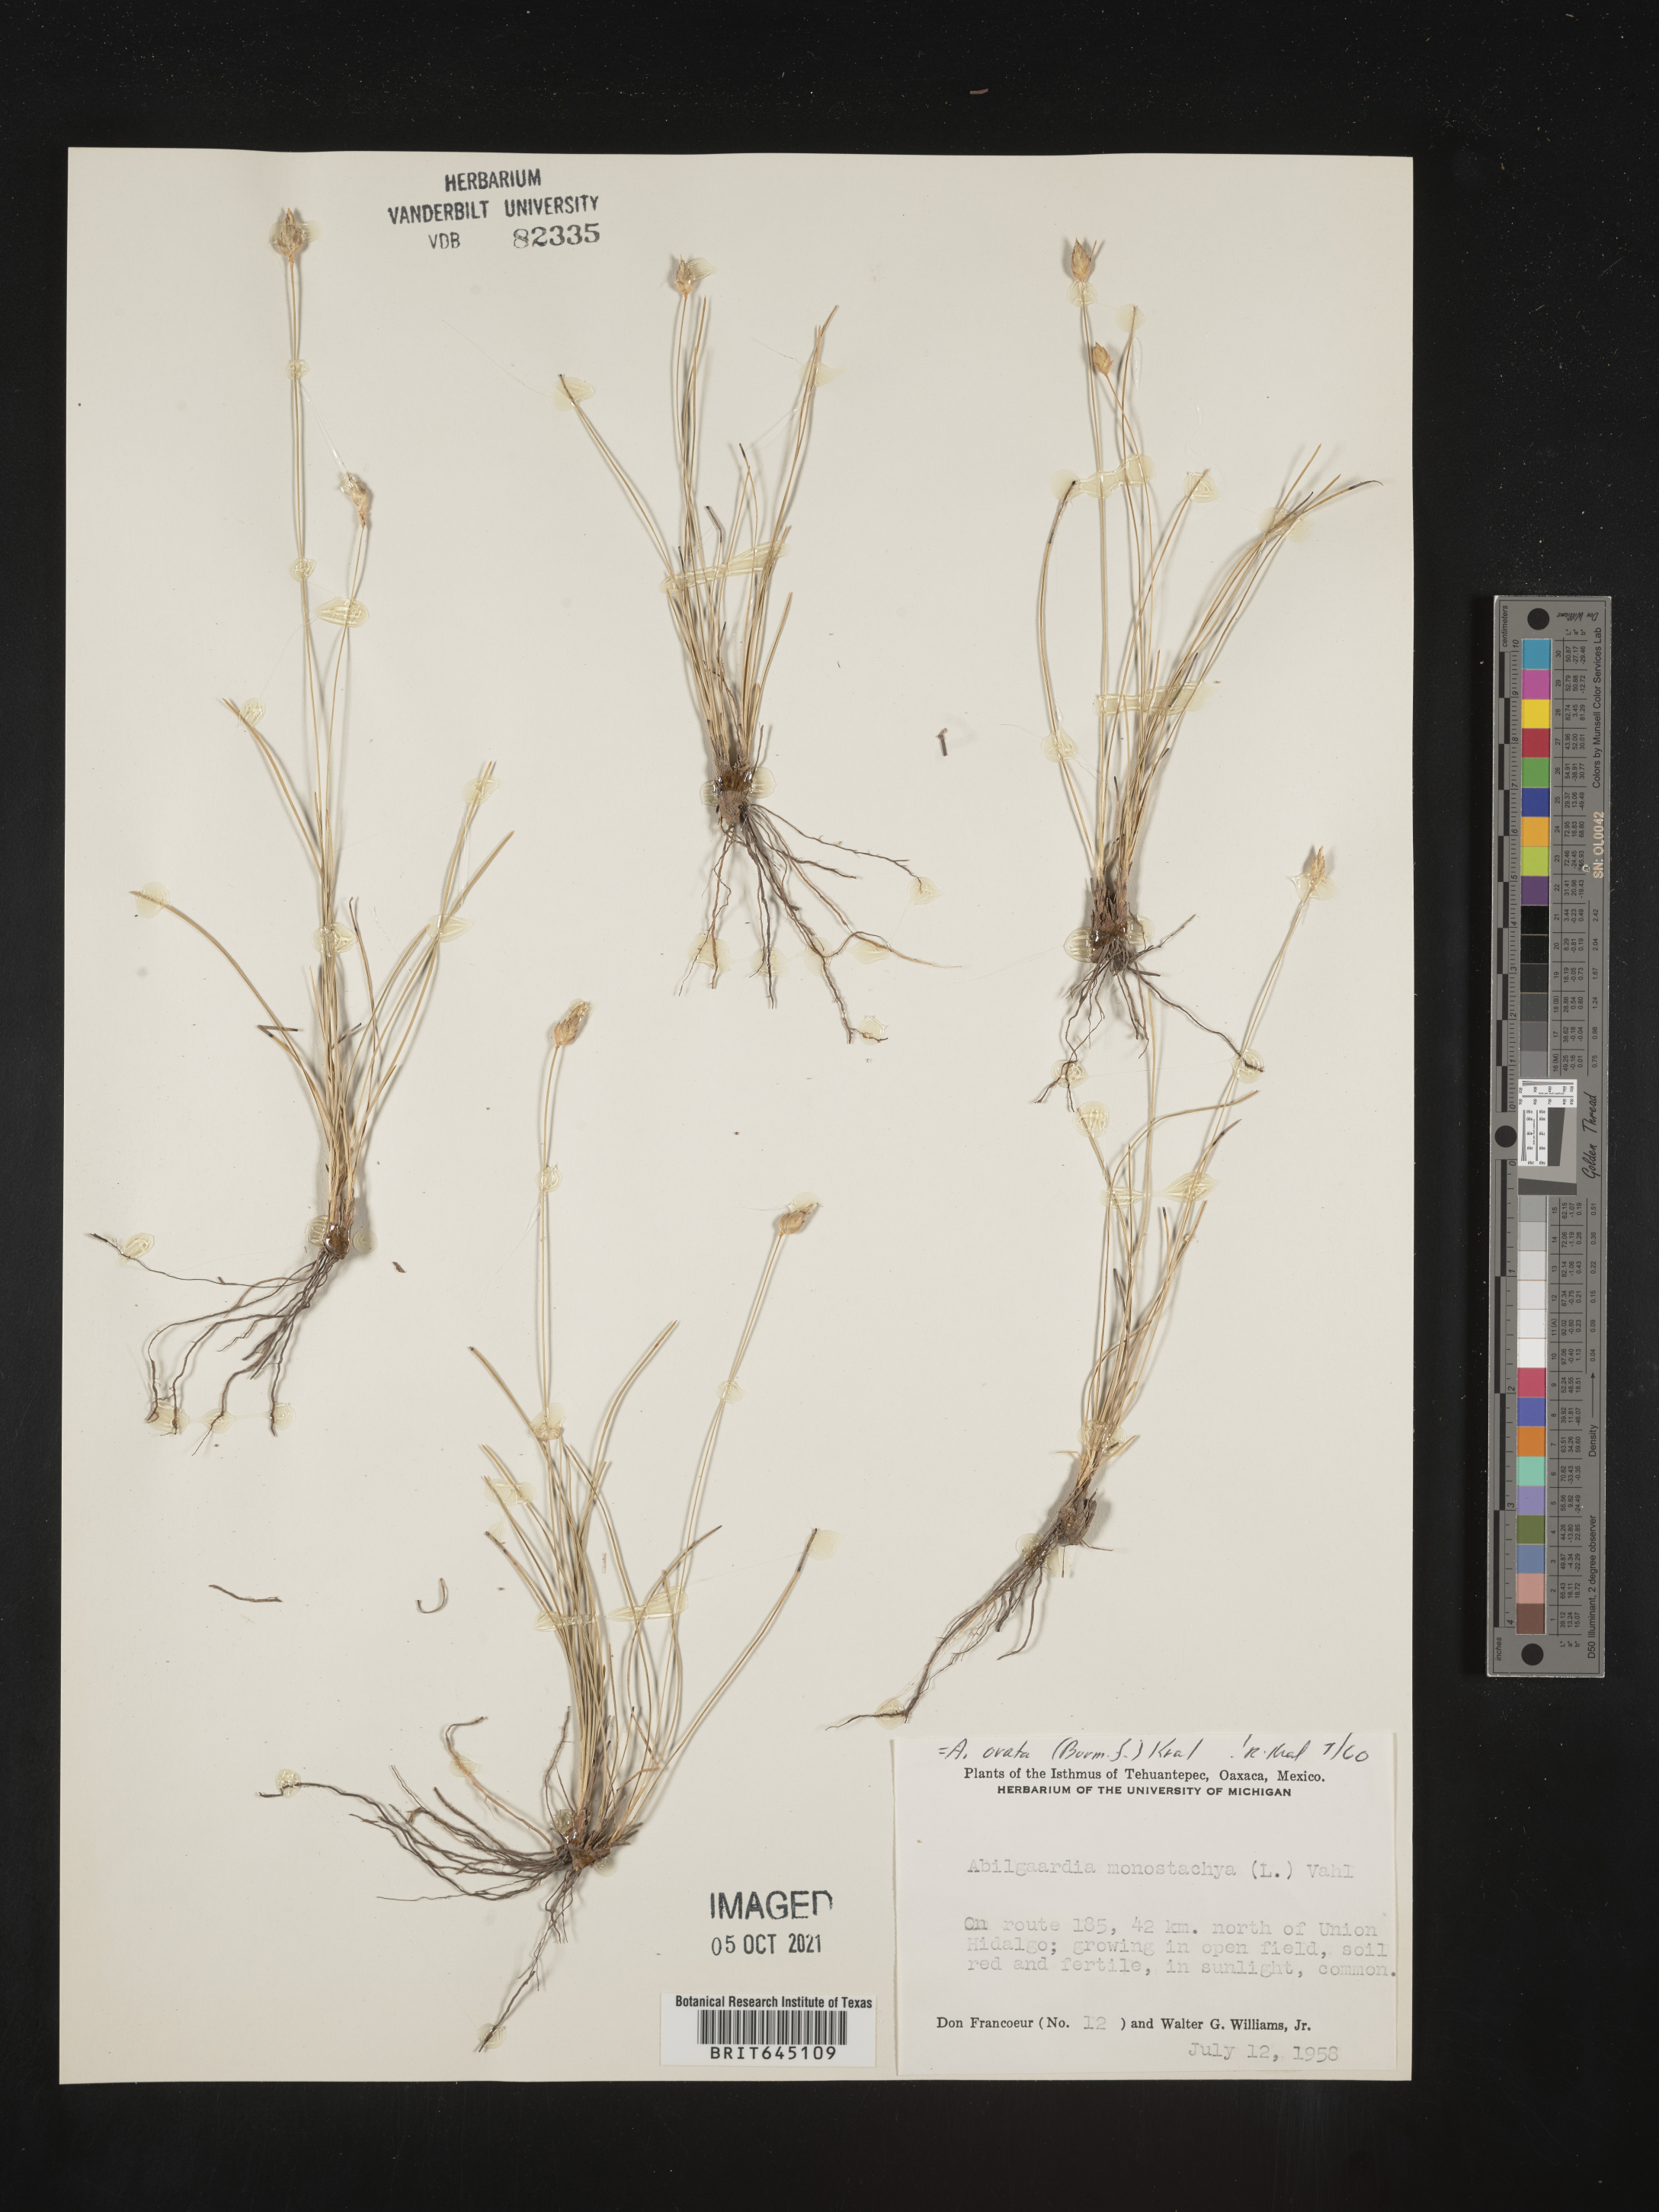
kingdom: Plantae
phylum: Tracheophyta
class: Liliopsida
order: Poales
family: Cyperaceae
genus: Abildgaardia
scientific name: Abildgaardia
